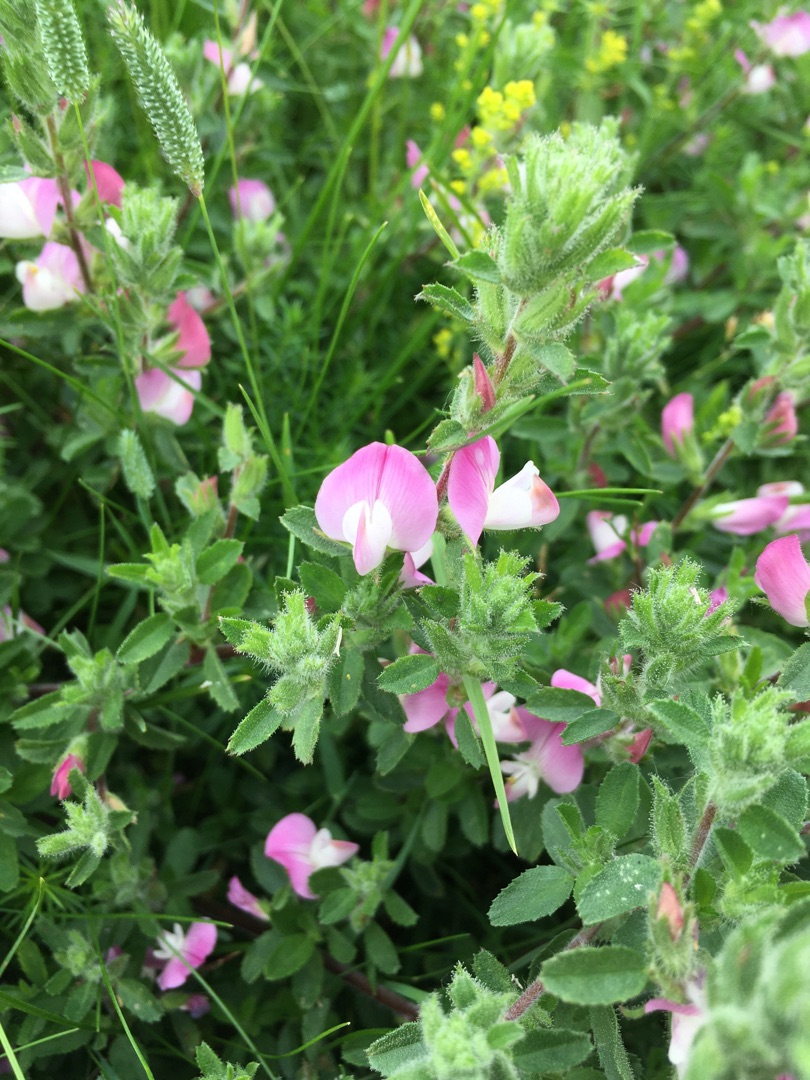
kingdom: Plantae
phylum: Tracheophyta
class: Magnoliopsida
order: Fabales
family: Fabaceae
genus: Ononis
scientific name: Ononis spinosa
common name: Mark-krageklo
